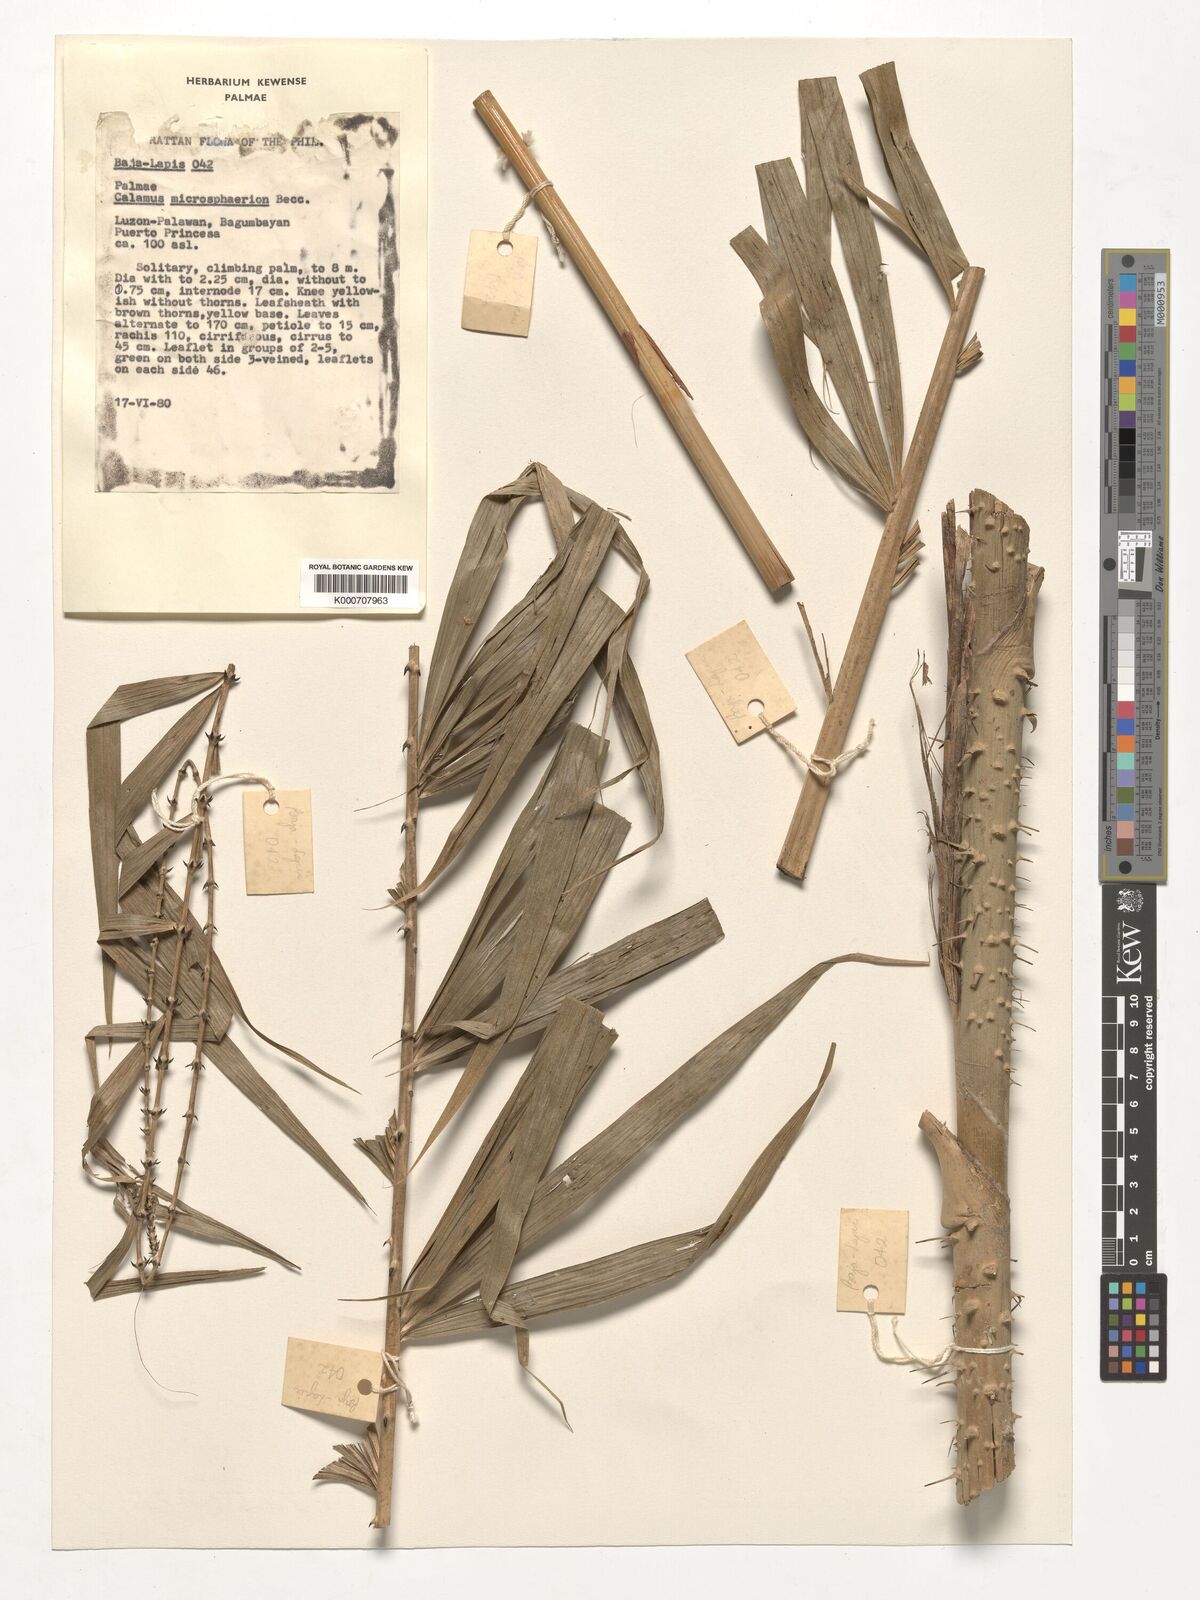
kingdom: Plantae
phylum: Tracheophyta
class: Liliopsida
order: Arecales
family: Arecaceae
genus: Calamus
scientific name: Calamus microsphaerion
